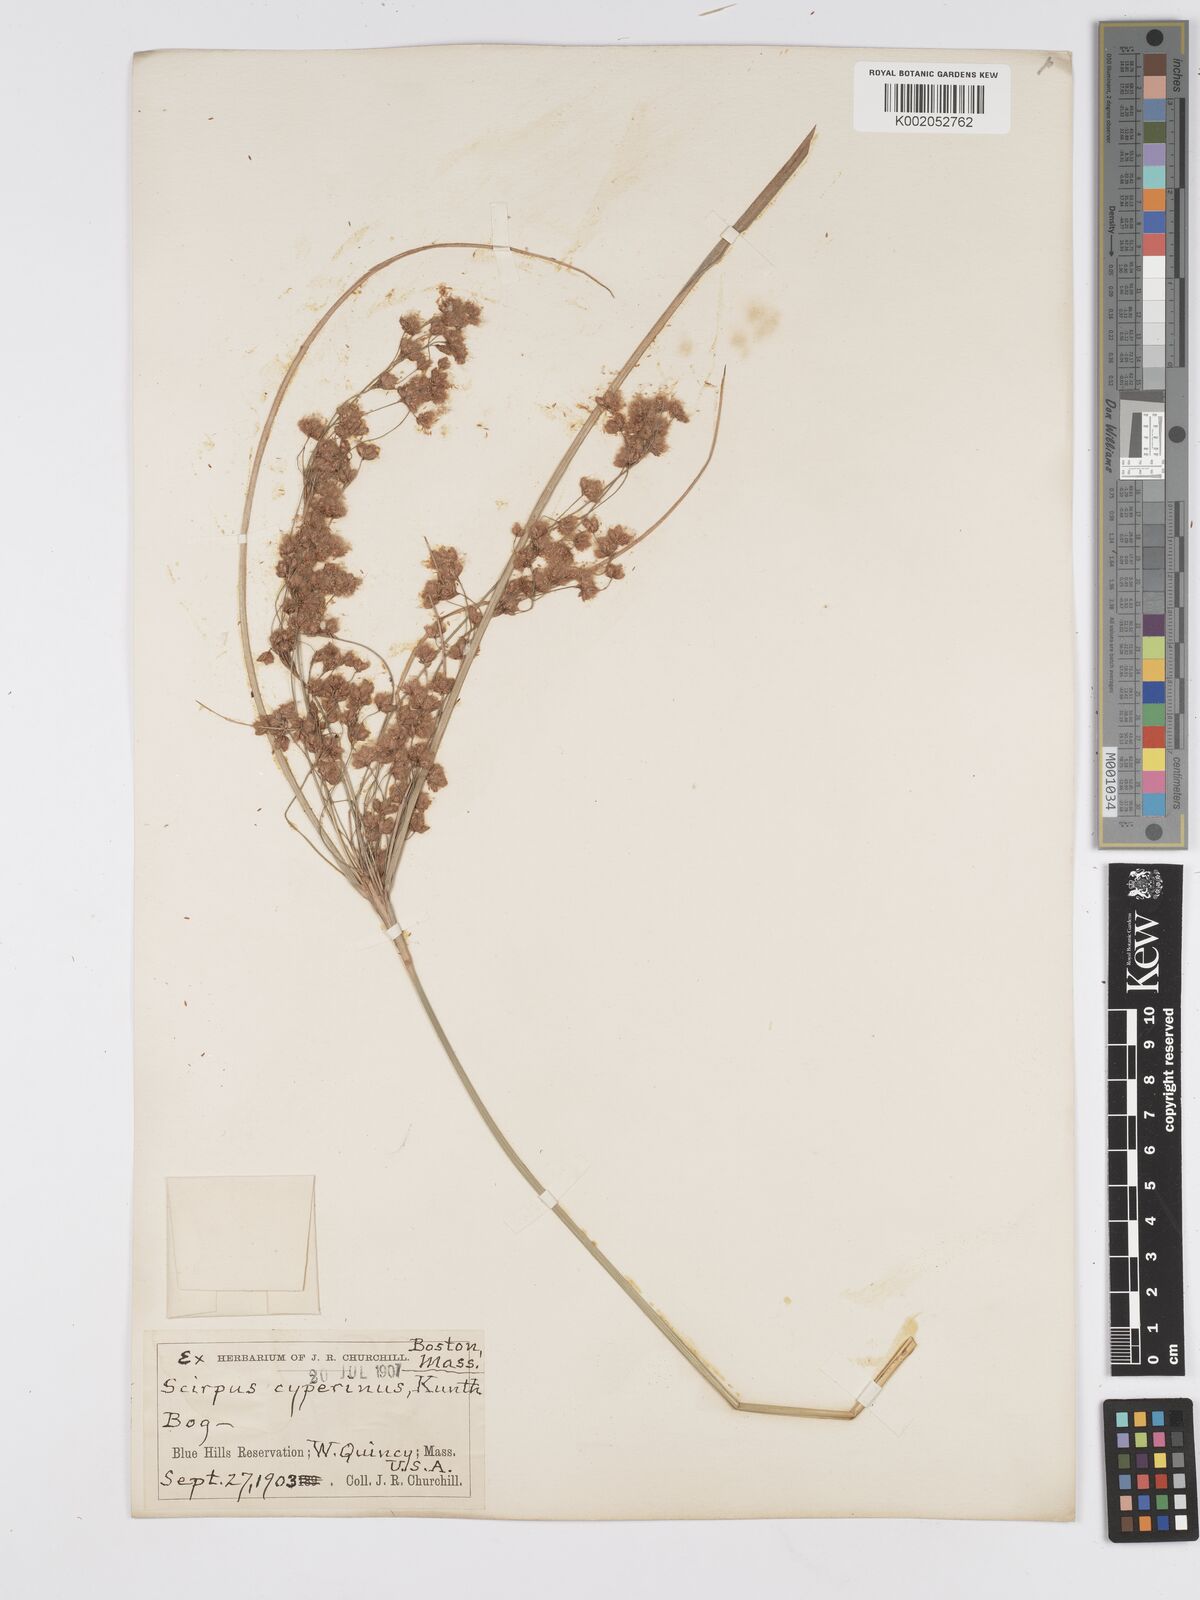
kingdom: Plantae
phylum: Tracheophyta
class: Liliopsida
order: Poales
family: Cyperaceae
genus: Scirpus
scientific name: Scirpus cyperinus
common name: Black-sheathed bulrush
